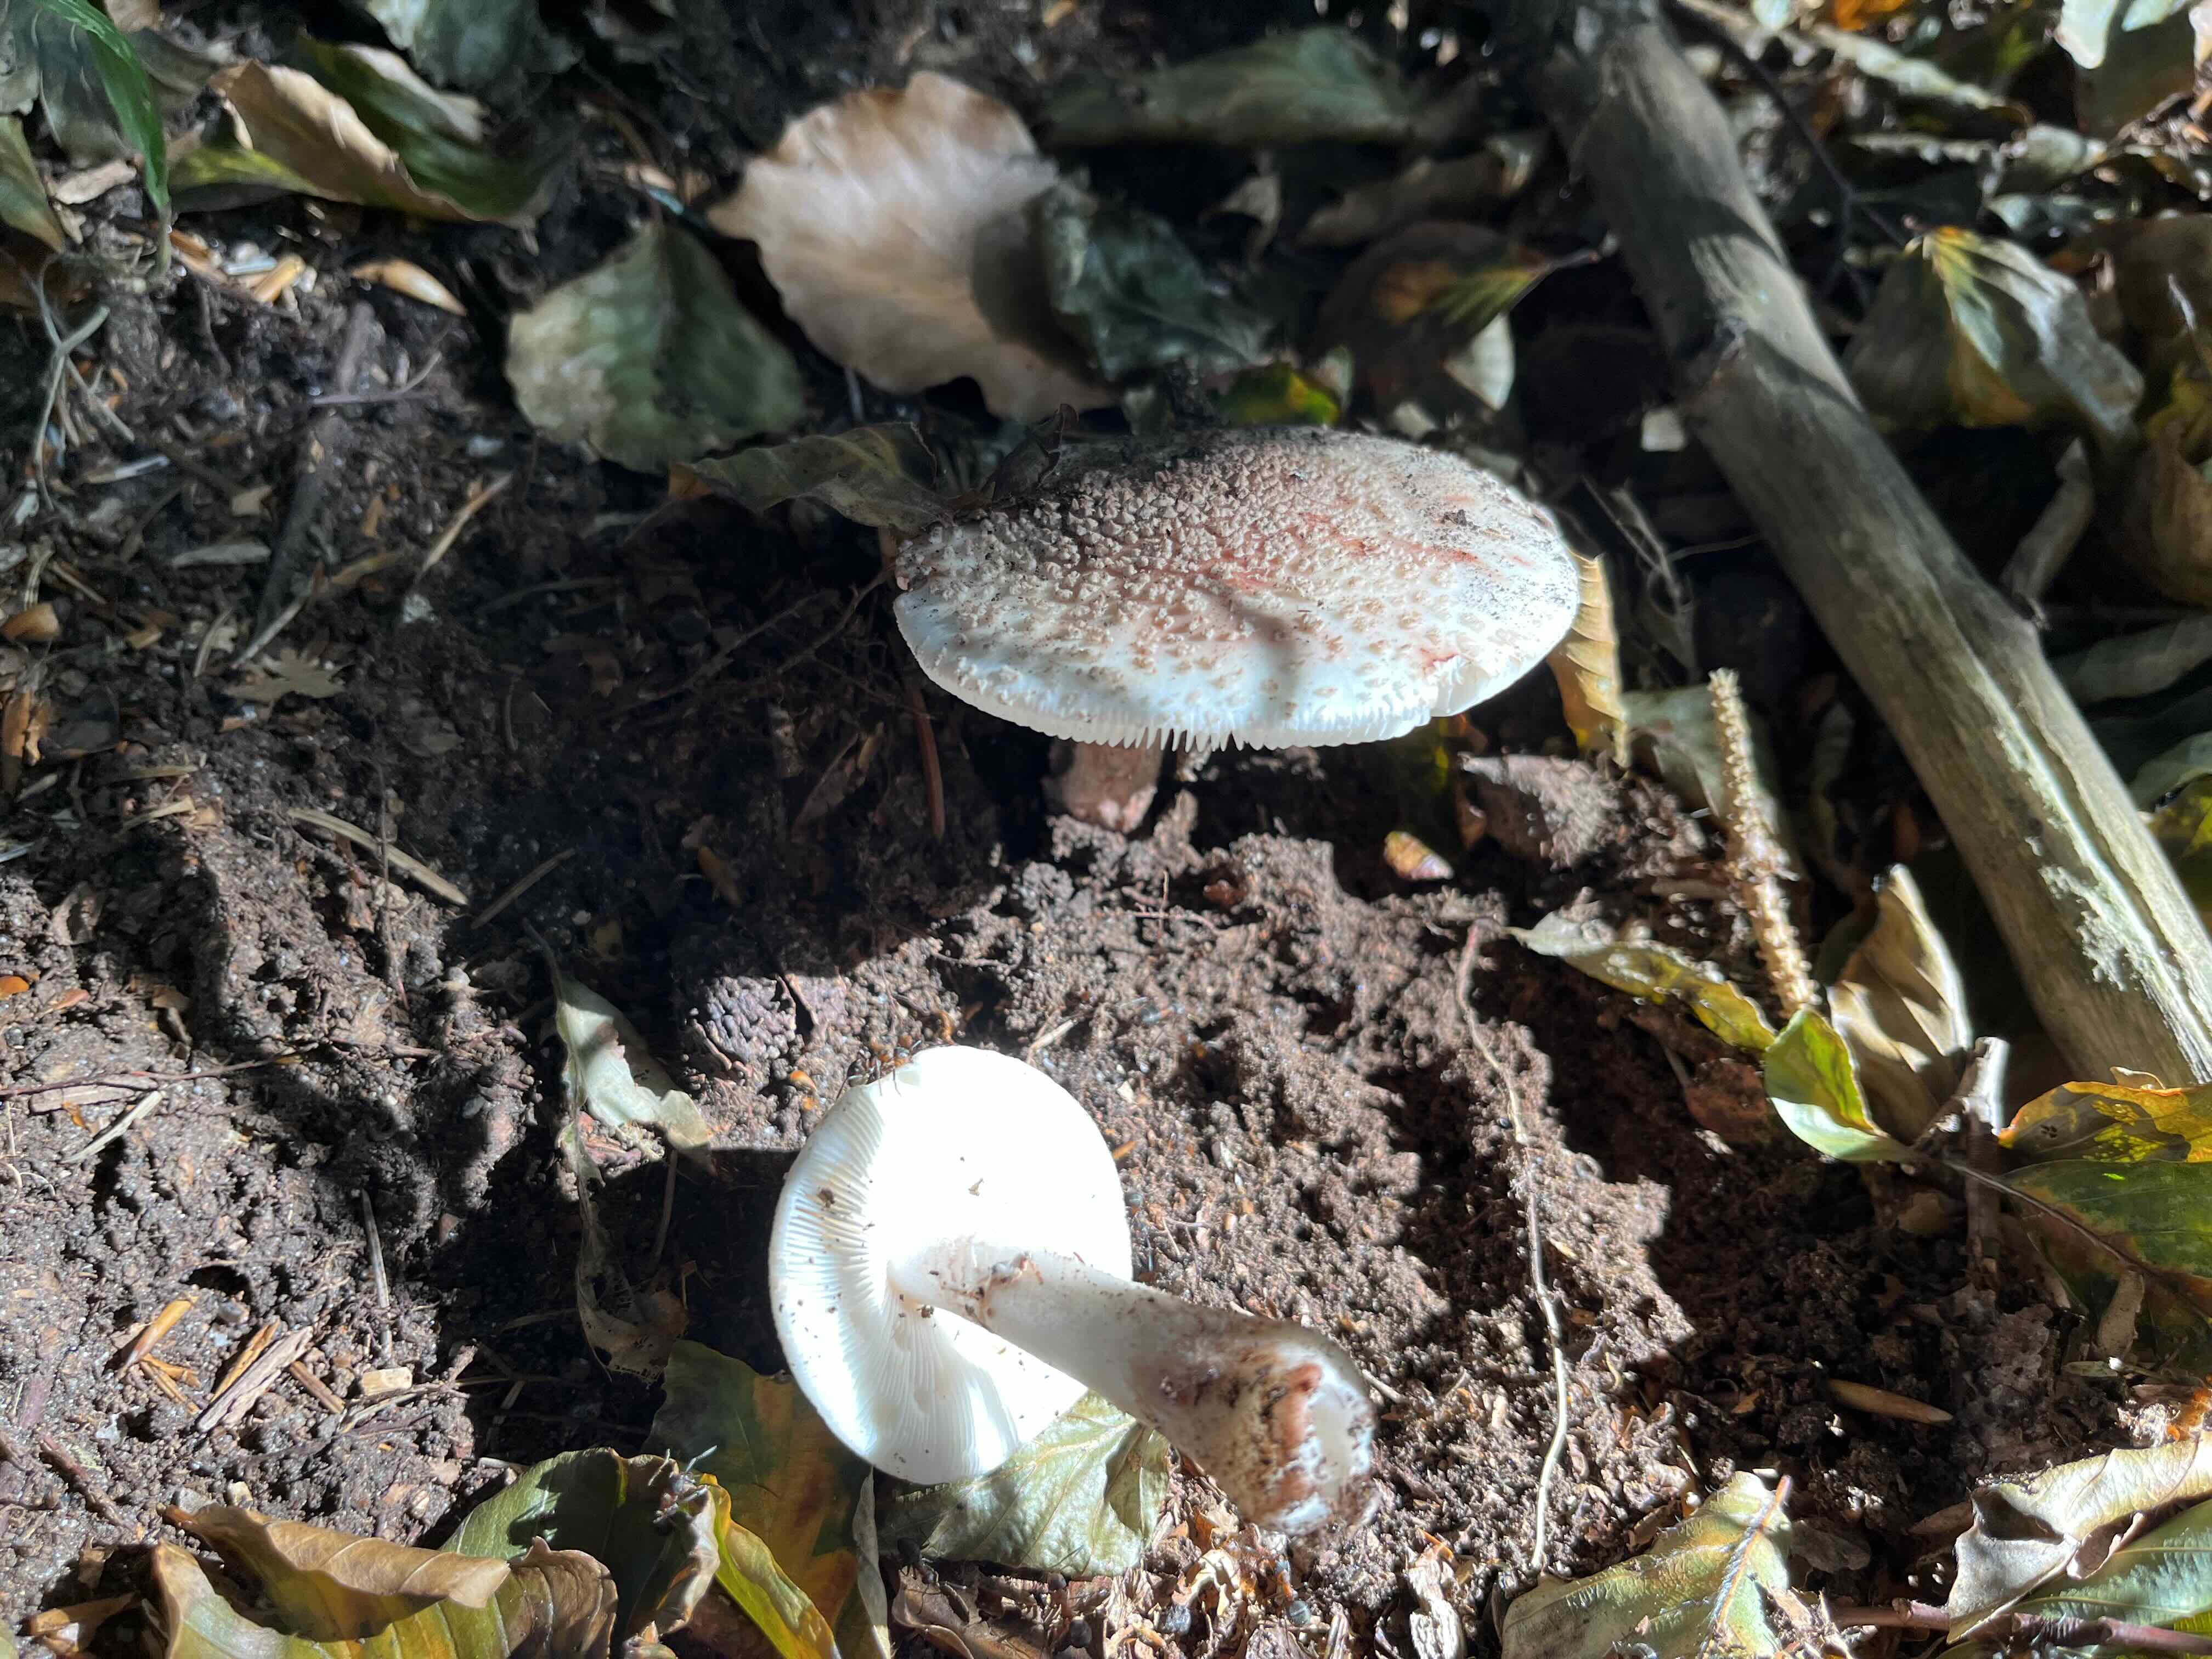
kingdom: Fungi
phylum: Basidiomycota
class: Agaricomycetes
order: Agaricales
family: Amanitaceae
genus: Amanita
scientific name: Amanita rubescens
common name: rødmende fluesvamp
